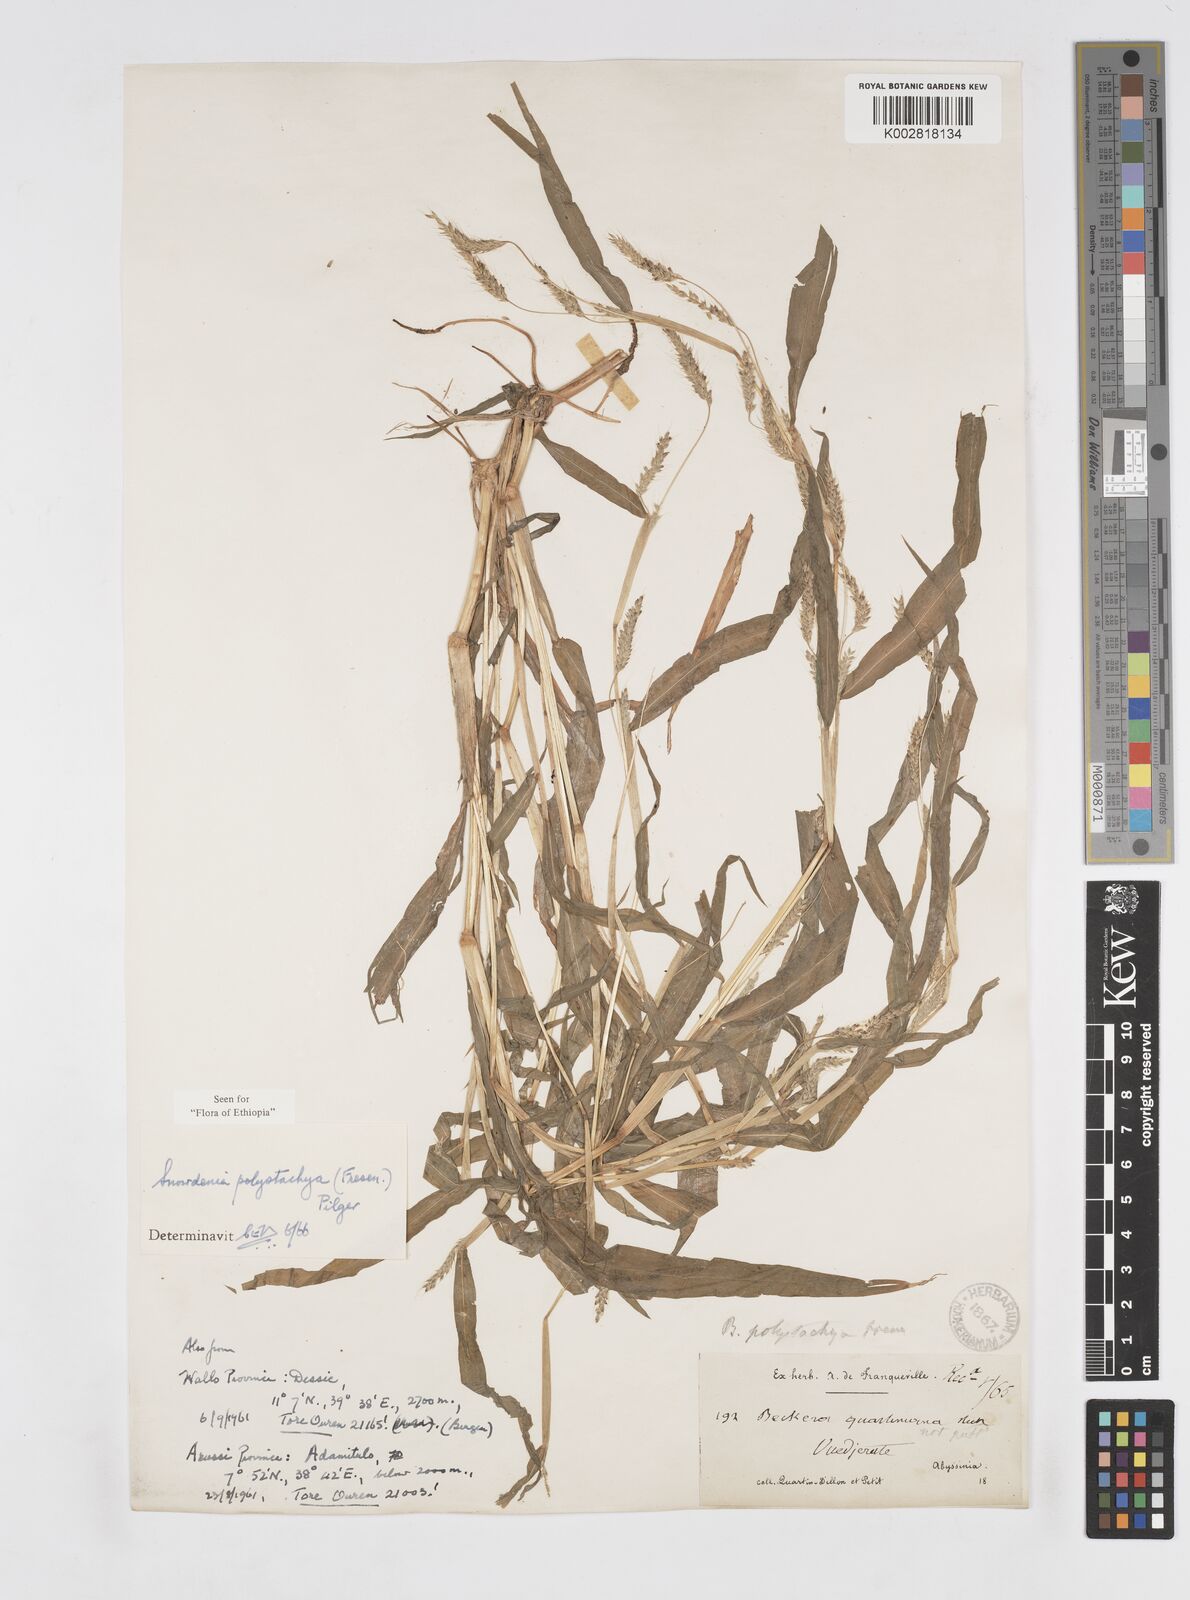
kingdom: Plantae
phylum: Tracheophyta
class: Liliopsida
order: Poales
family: Poaceae
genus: Snowdenia
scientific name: Snowdenia polystachya
